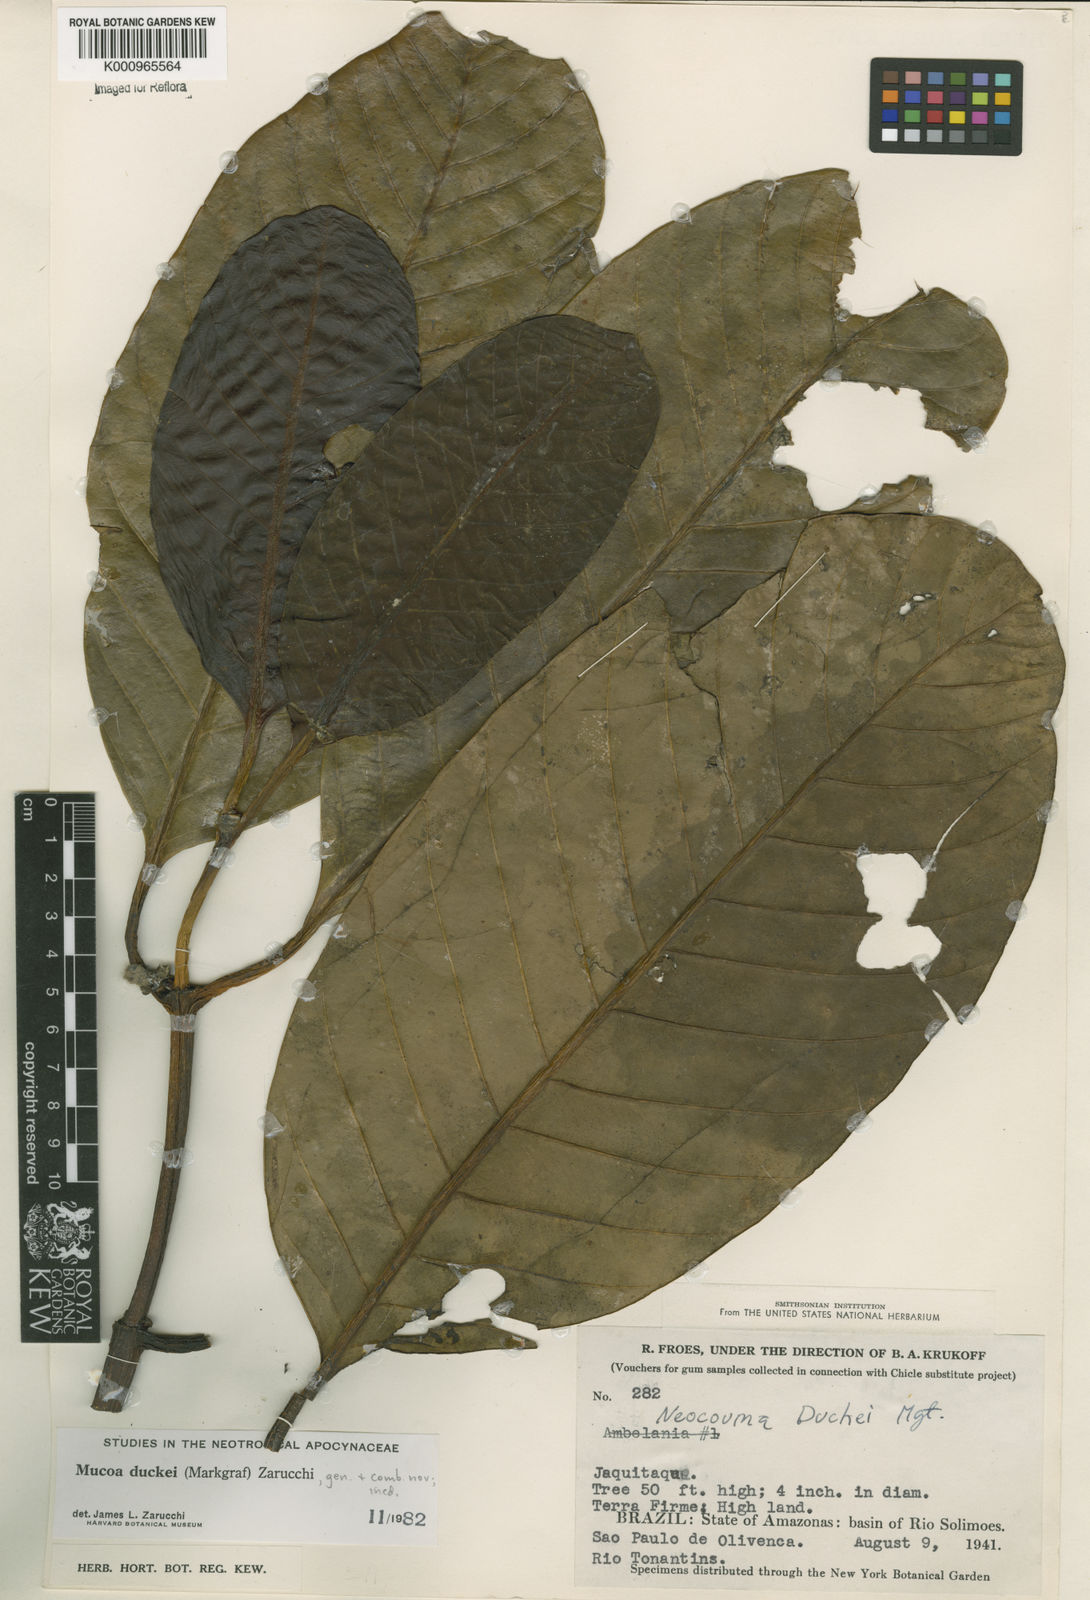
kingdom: Plantae
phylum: Tracheophyta
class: Magnoliopsida
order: Gentianales
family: Apocynaceae
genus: Mucoa
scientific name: Mucoa duckei
